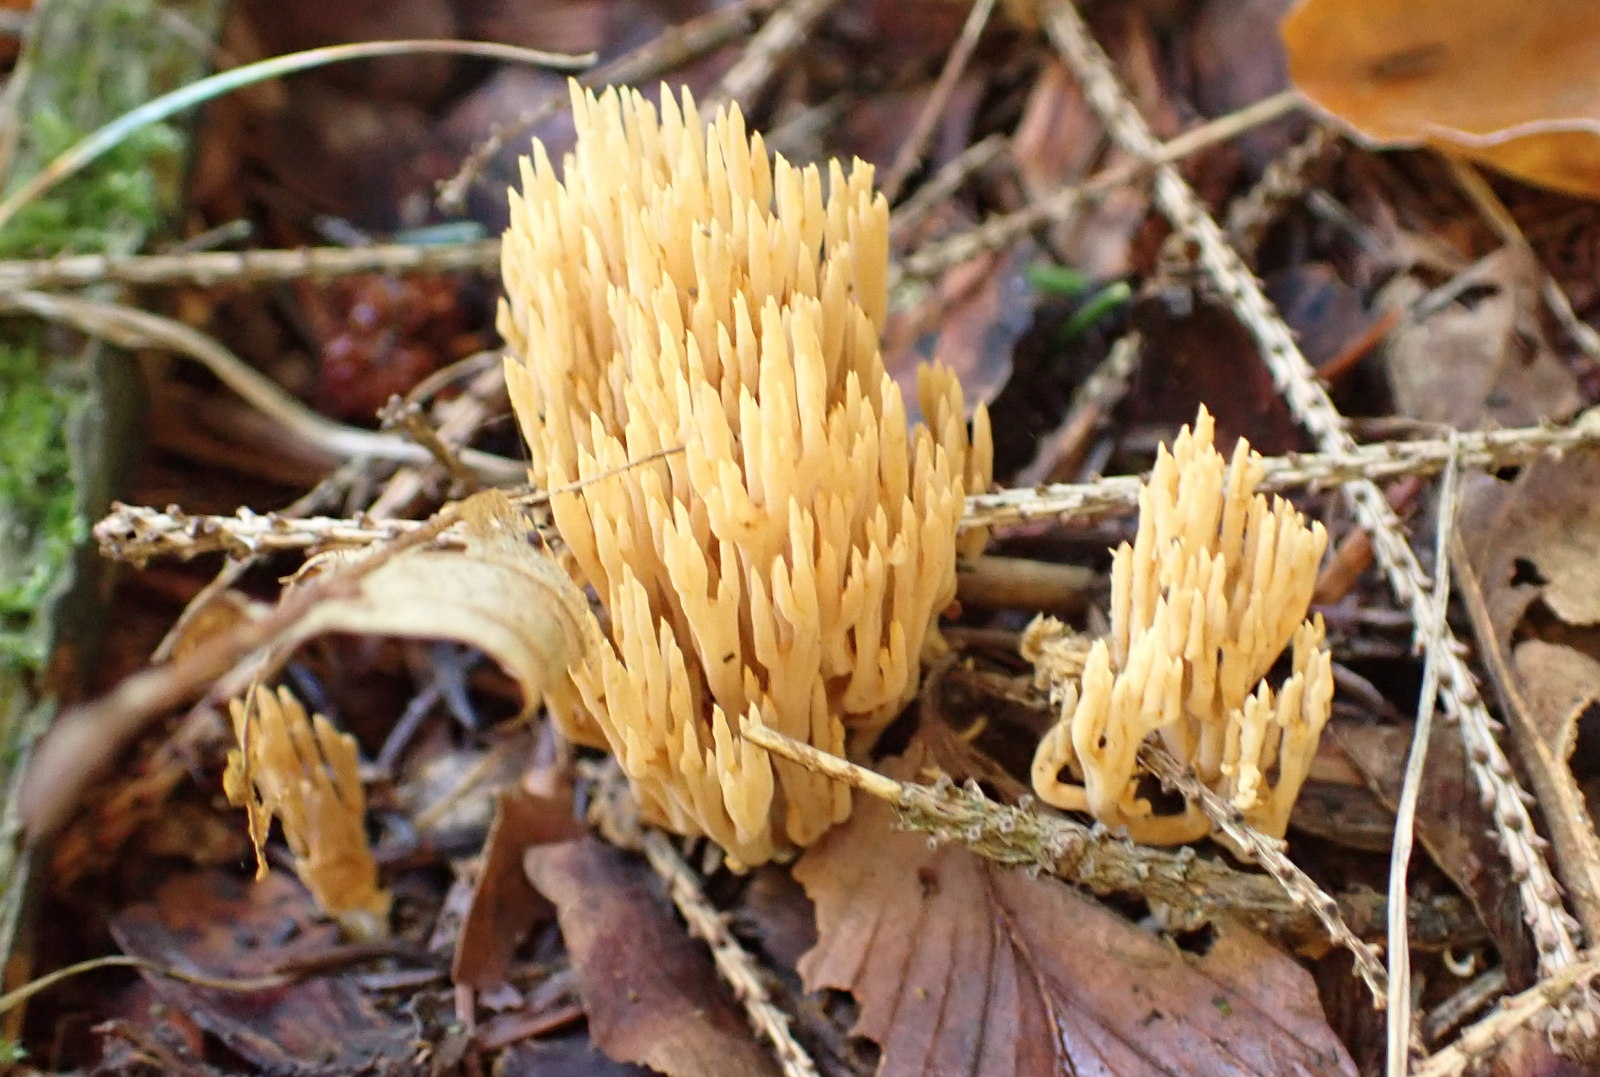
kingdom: Fungi
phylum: Basidiomycota
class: Agaricomycetes
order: Gomphales
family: Gomphaceae
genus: Phaeoclavulina
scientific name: Phaeoclavulina eumorpha
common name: gran-koralsvamp
